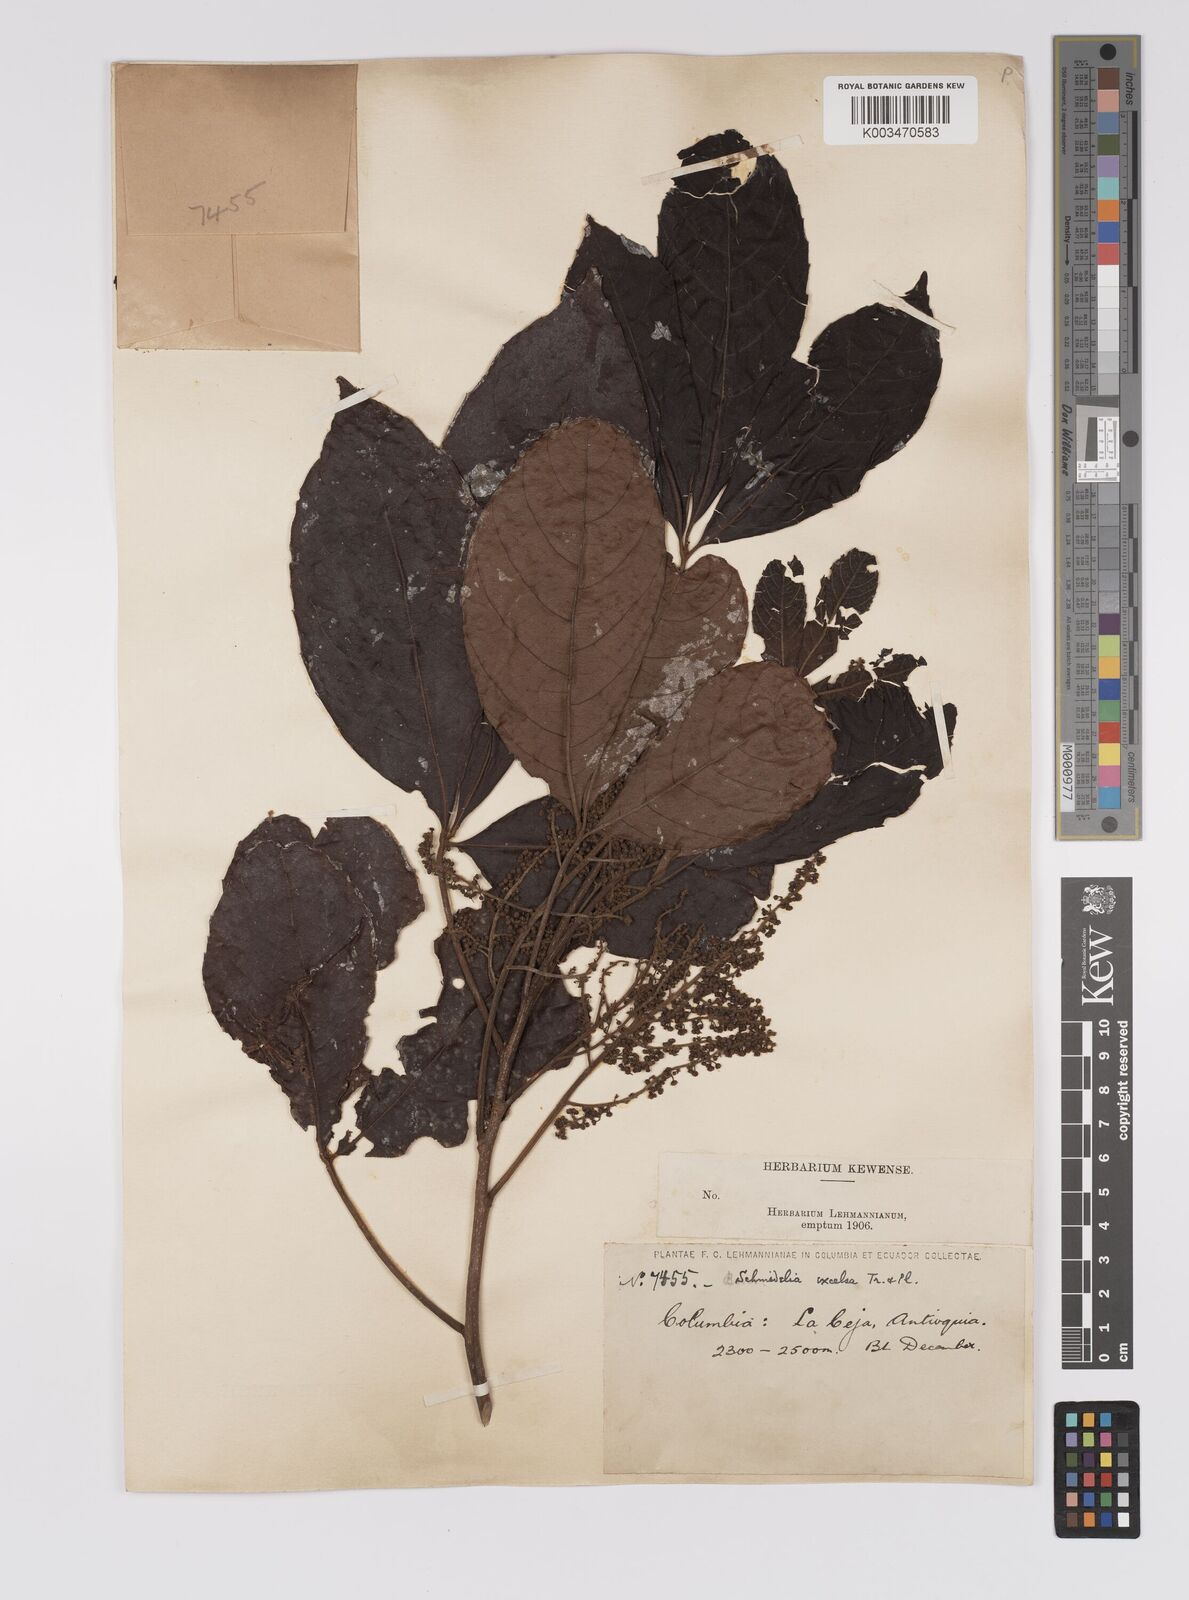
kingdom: Plantae
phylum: Tracheophyta
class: Magnoliopsida
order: Sapindales
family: Sapindaceae
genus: Allophylus
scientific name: Allophylus excelsus
